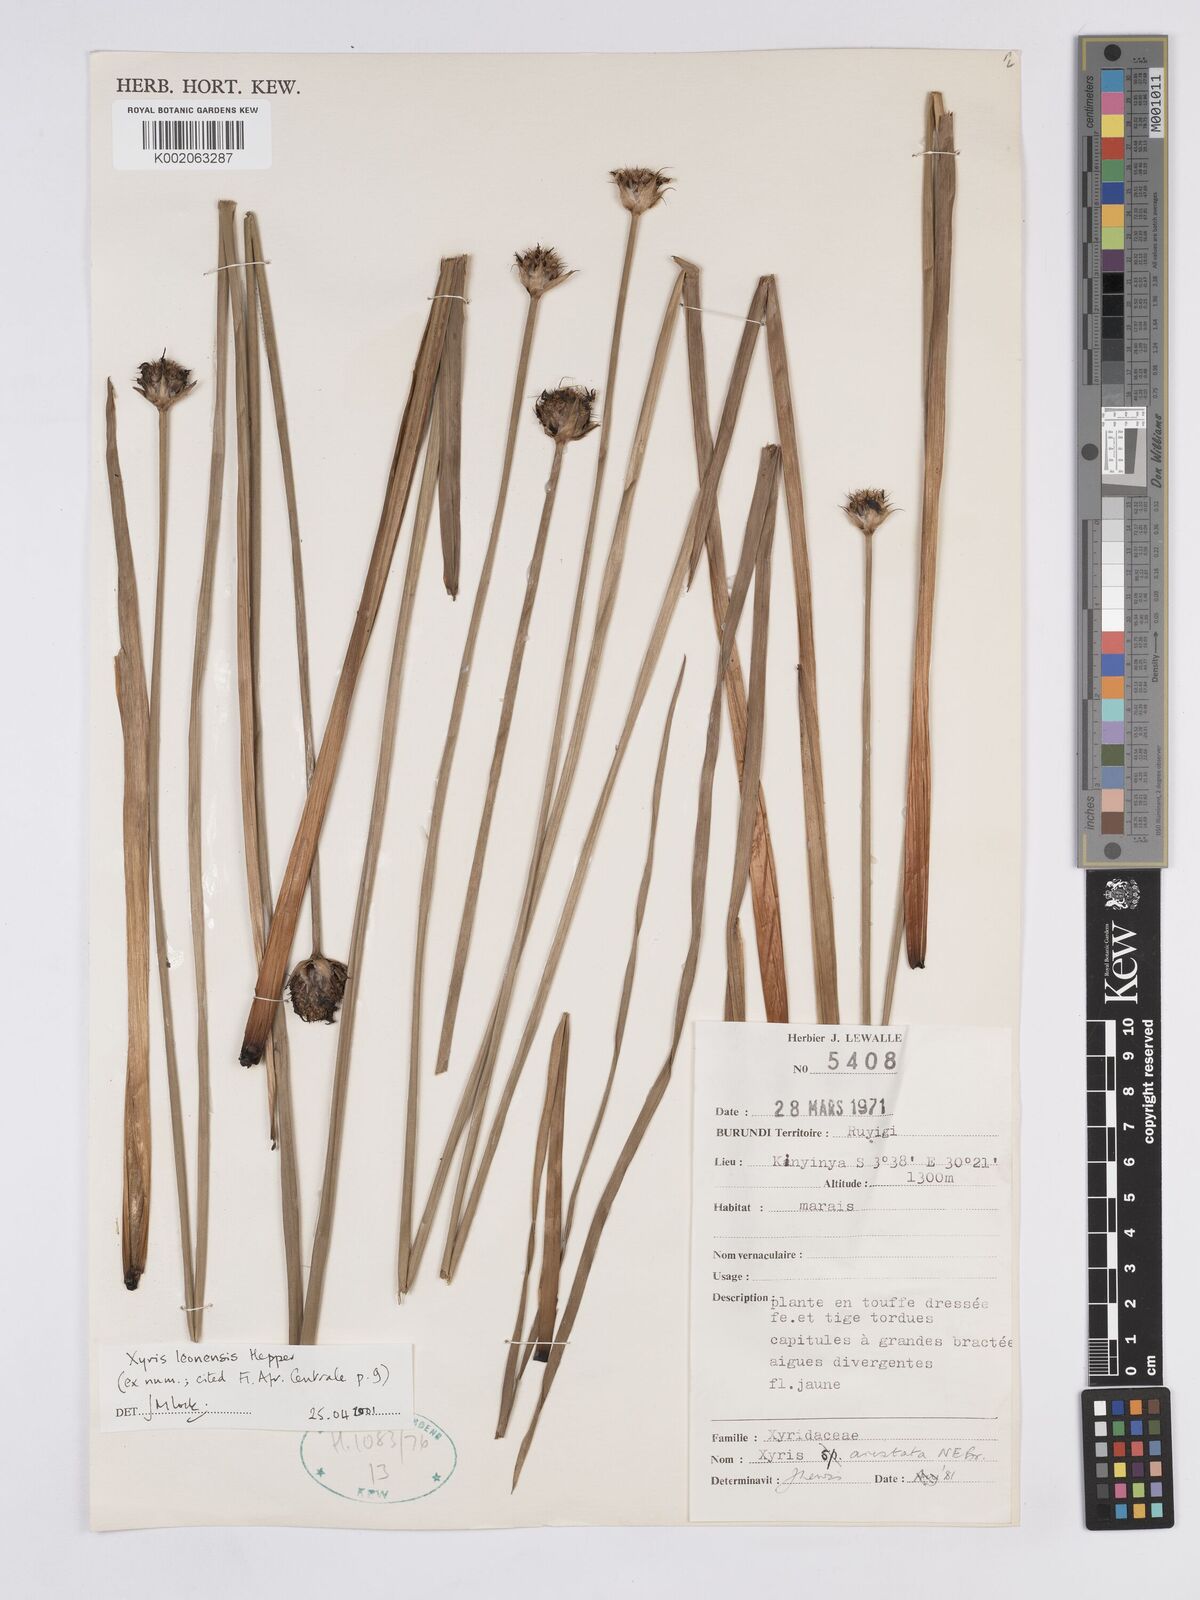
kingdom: Plantae
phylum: Tracheophyta
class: Liliopsida
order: Poales
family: Xyridaceae
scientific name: Xyridaceae
